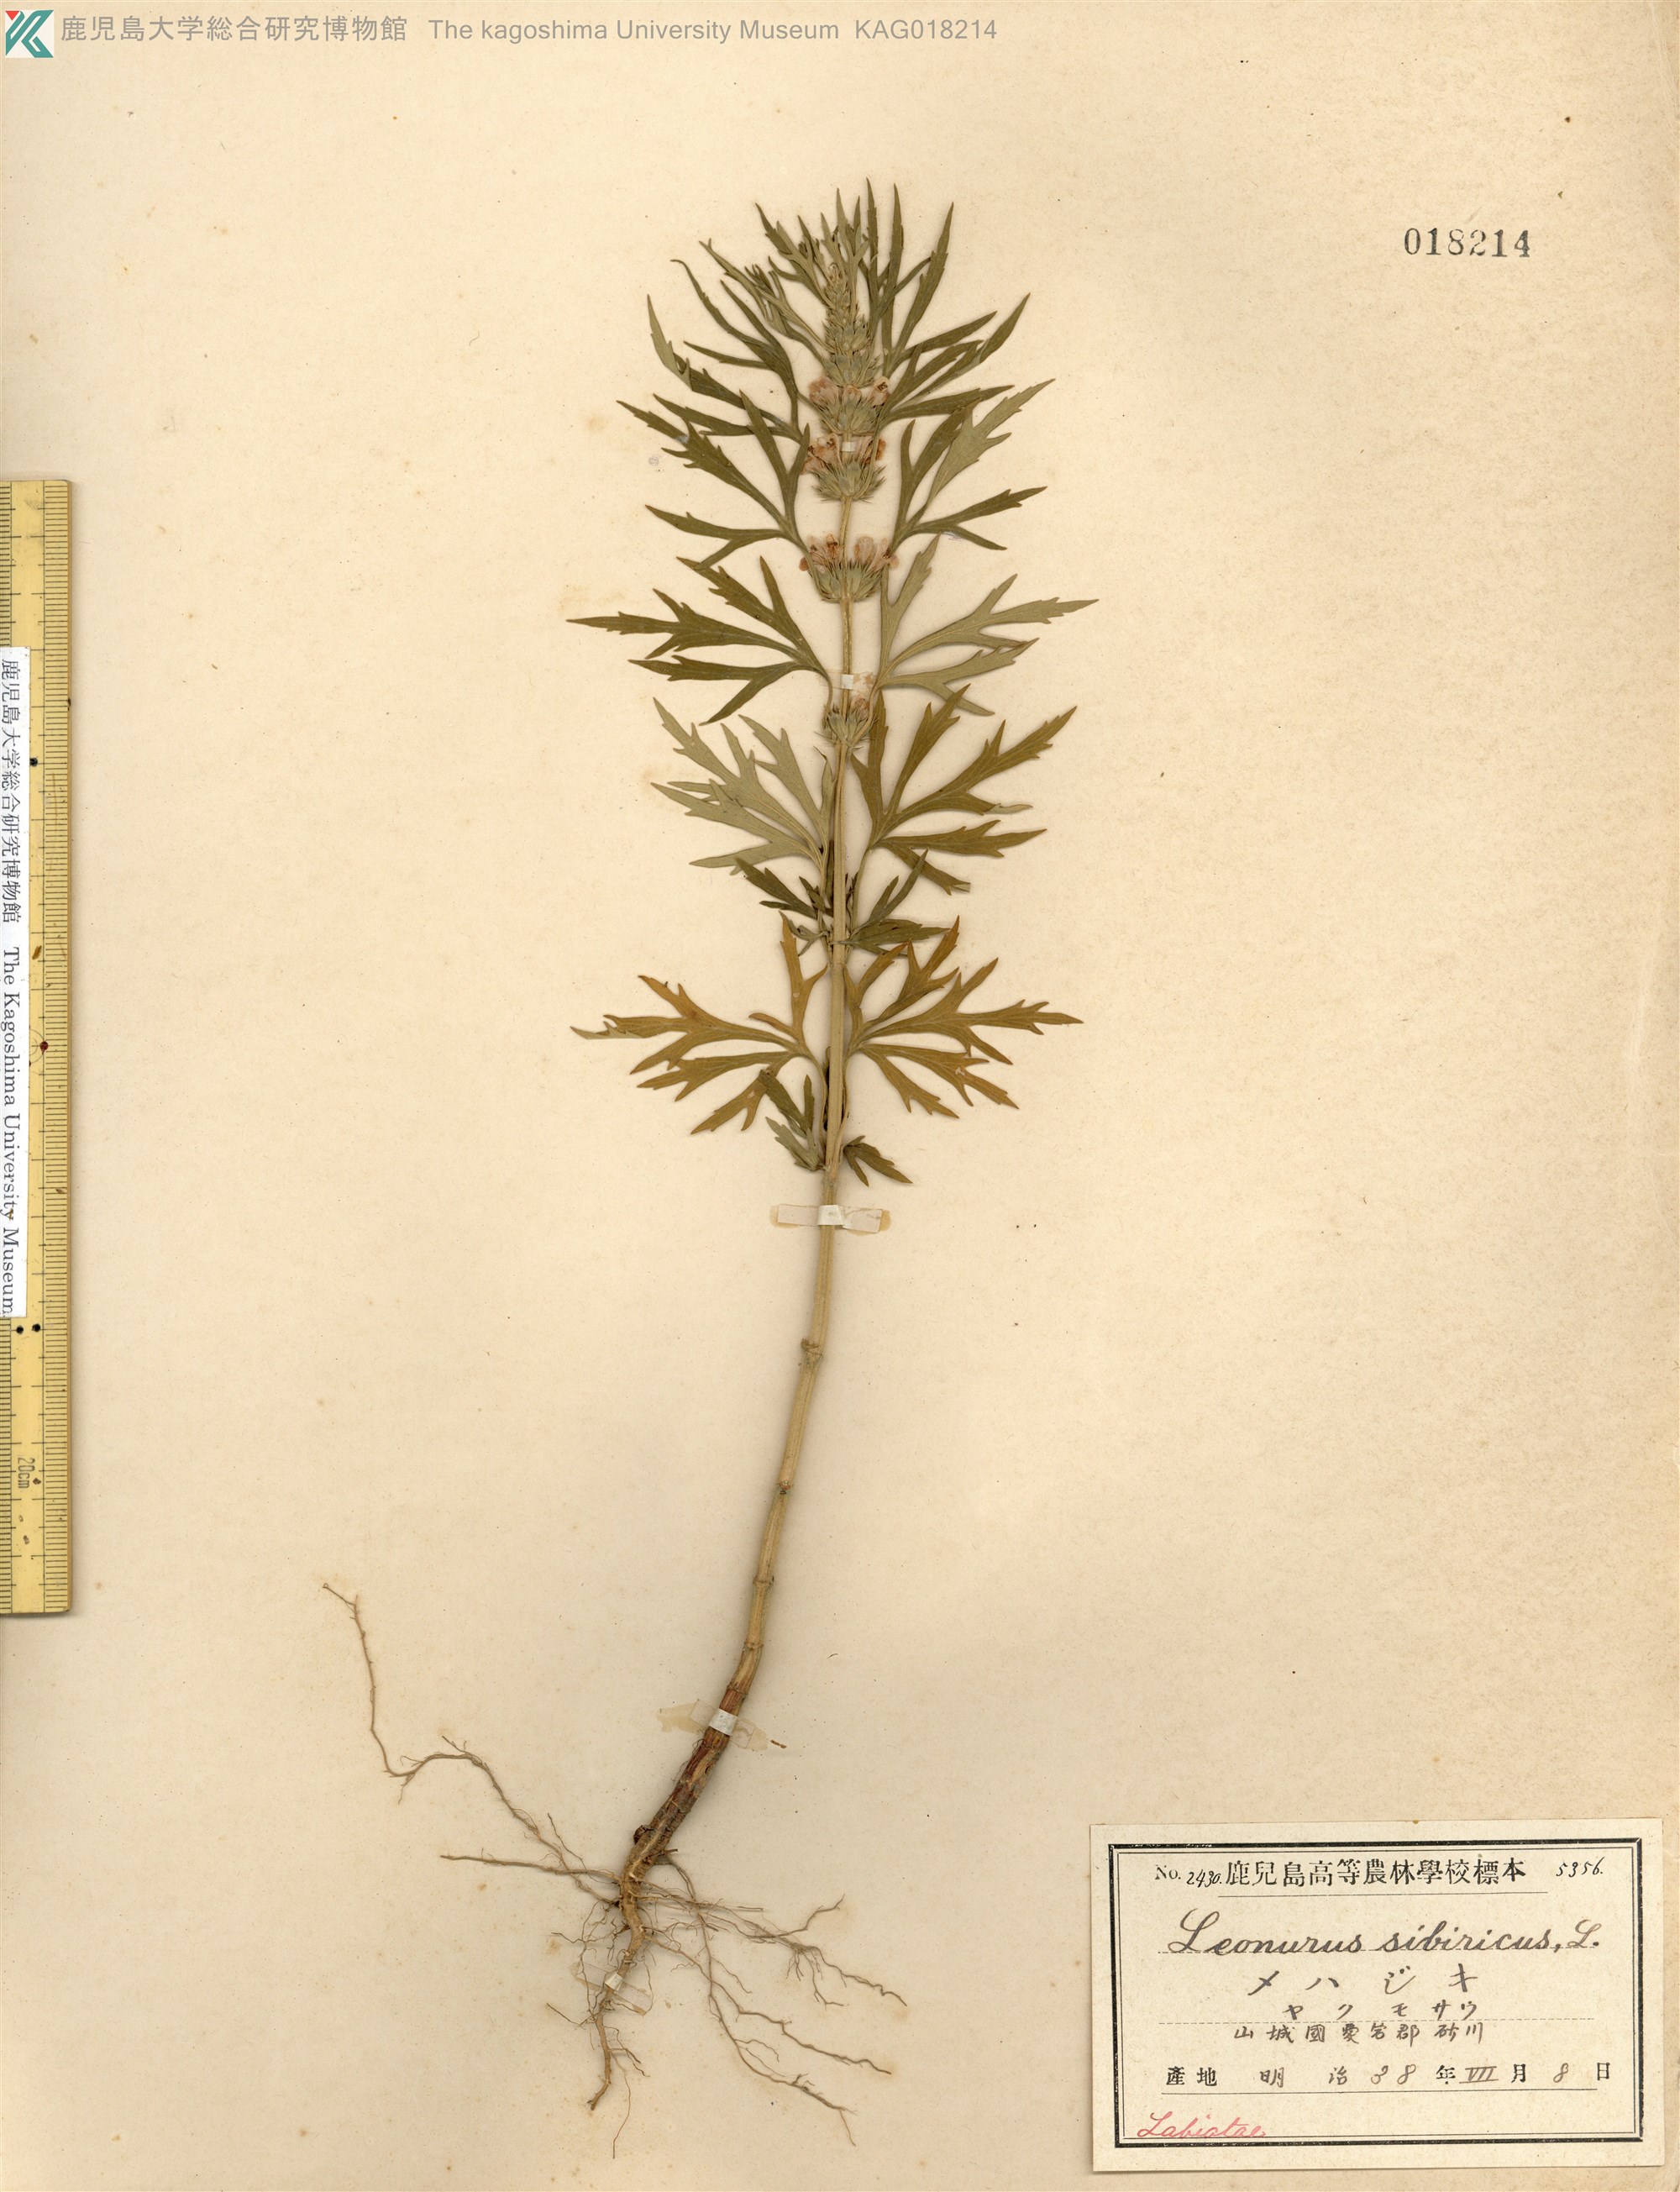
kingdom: Plantae
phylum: Tracheophyta
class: Magnoliopsida
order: Lamiales
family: Lamiaceae
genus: Leonurus
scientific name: Leonurus japonicus
